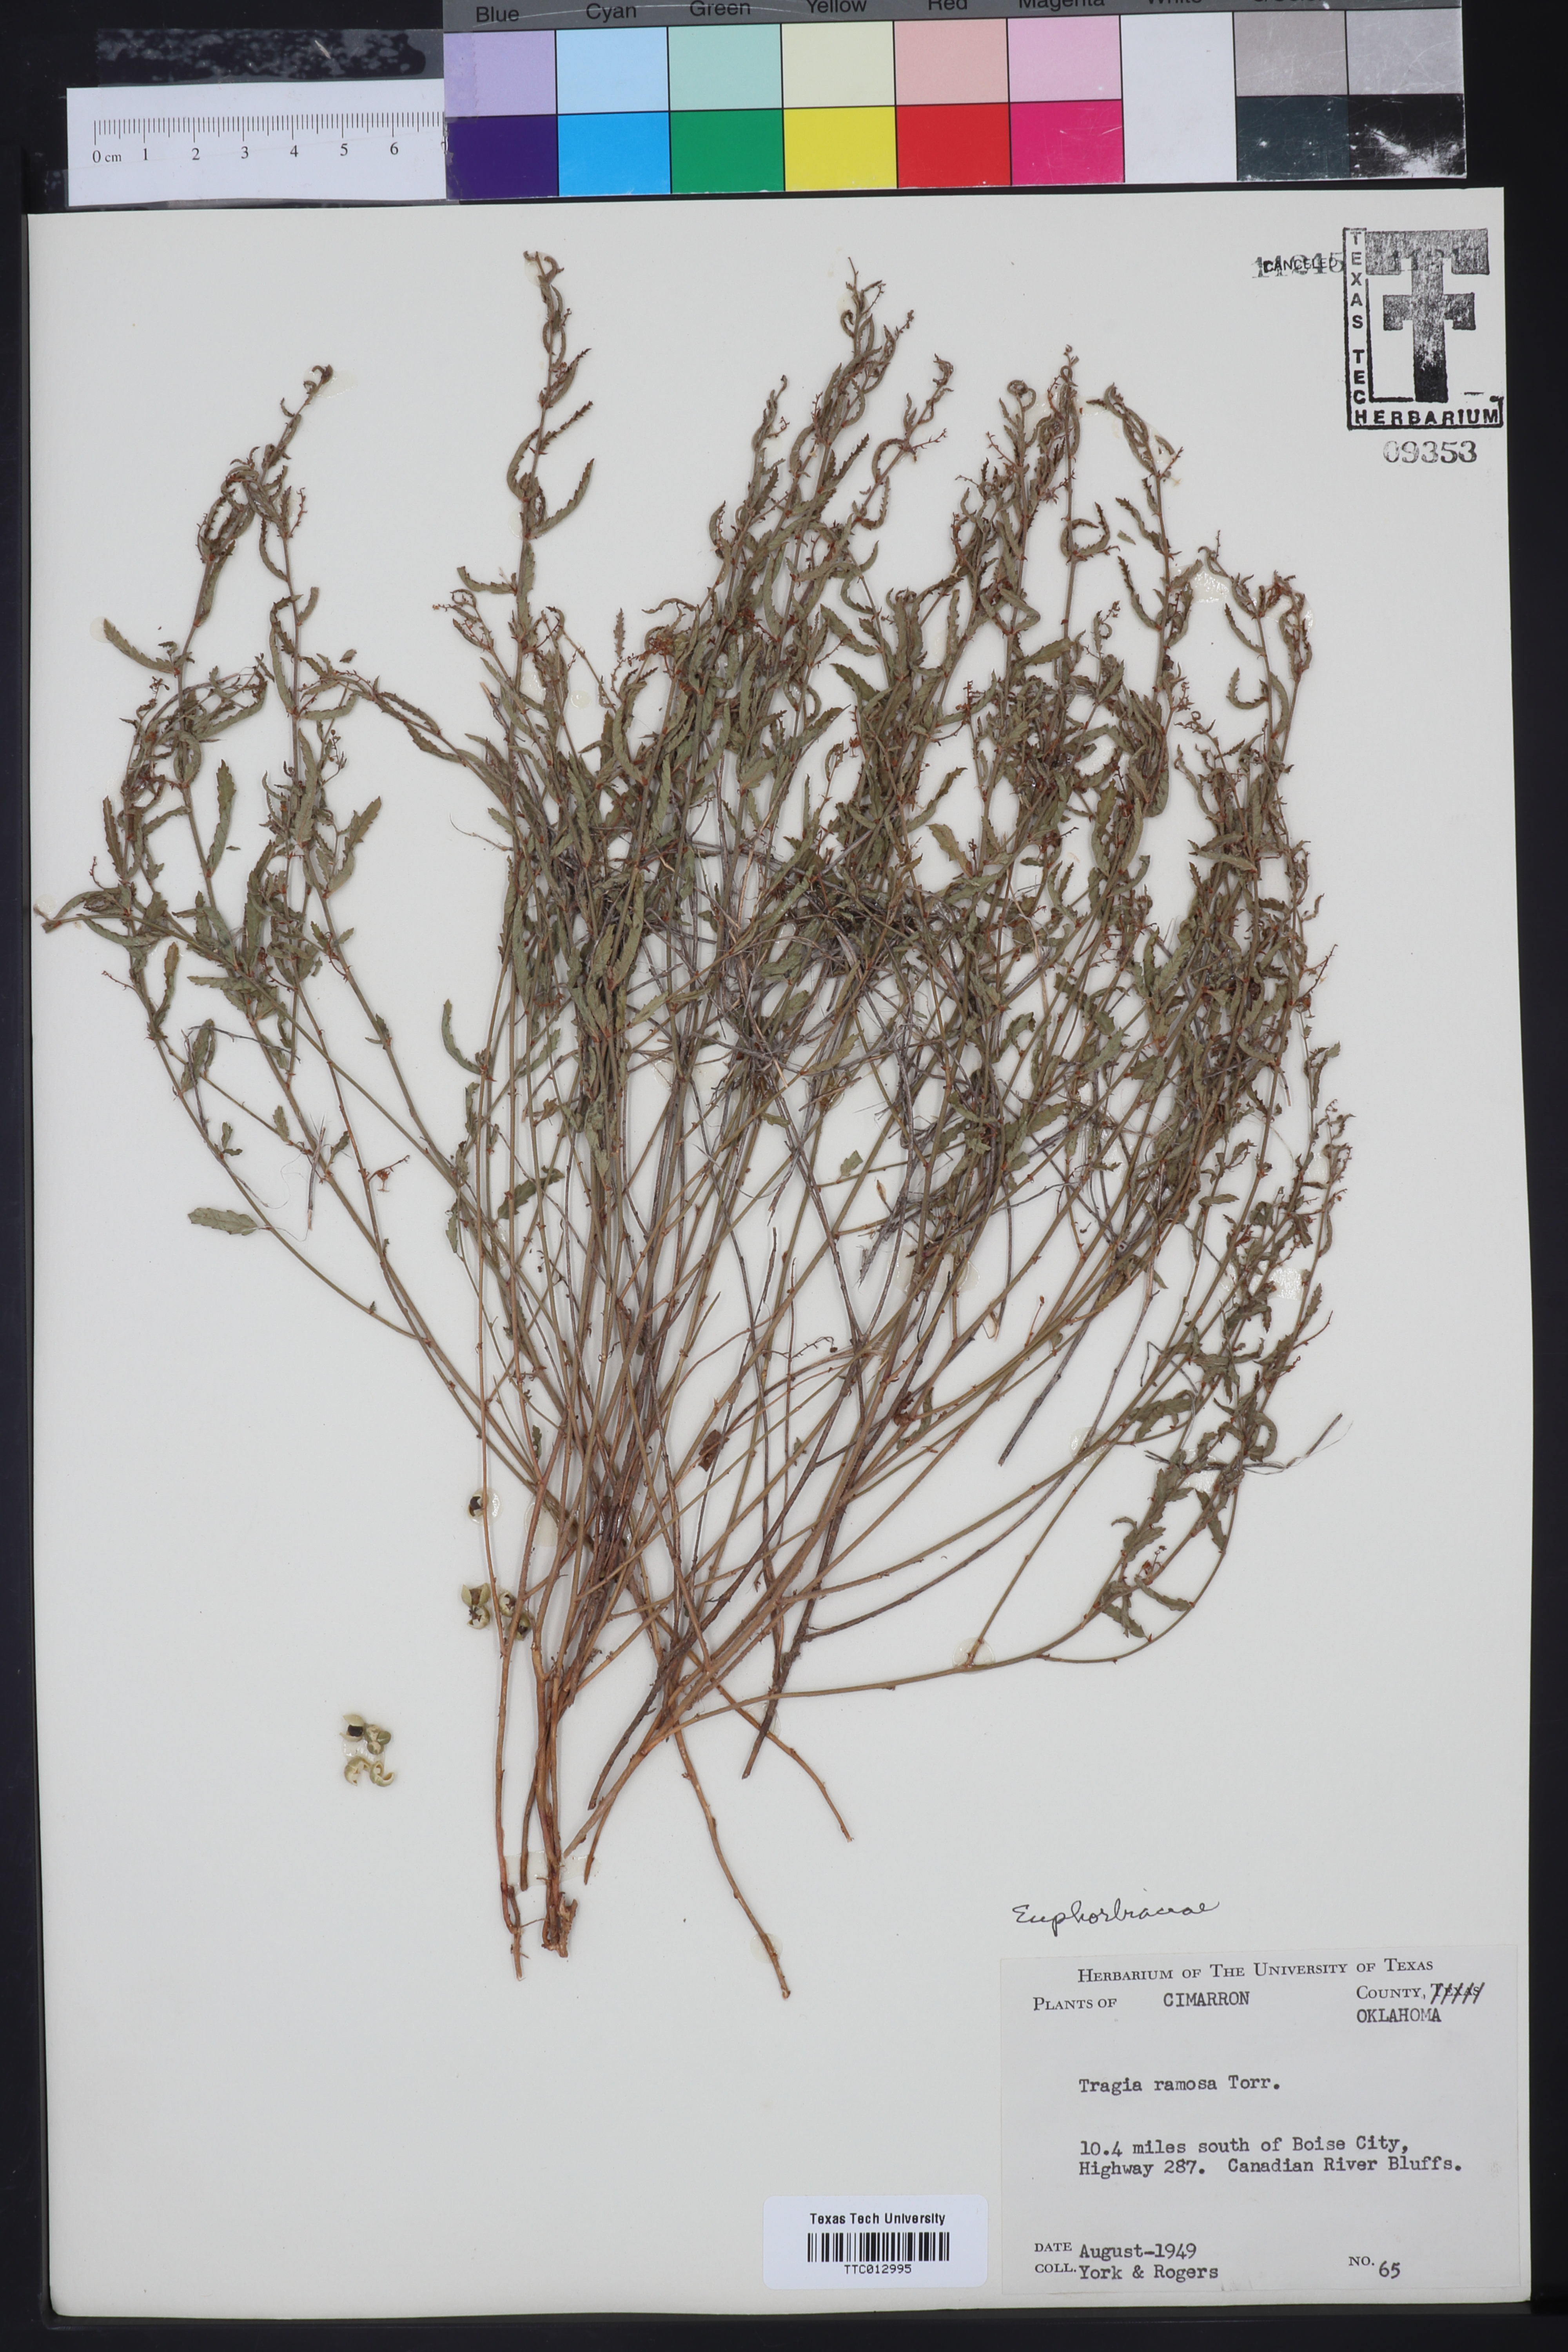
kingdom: Plantae
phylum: Tracheophyta
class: Magnoliopsida
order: Malpighiales
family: Euphorbiaceae
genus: Tragia
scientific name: Tragia ramosa
